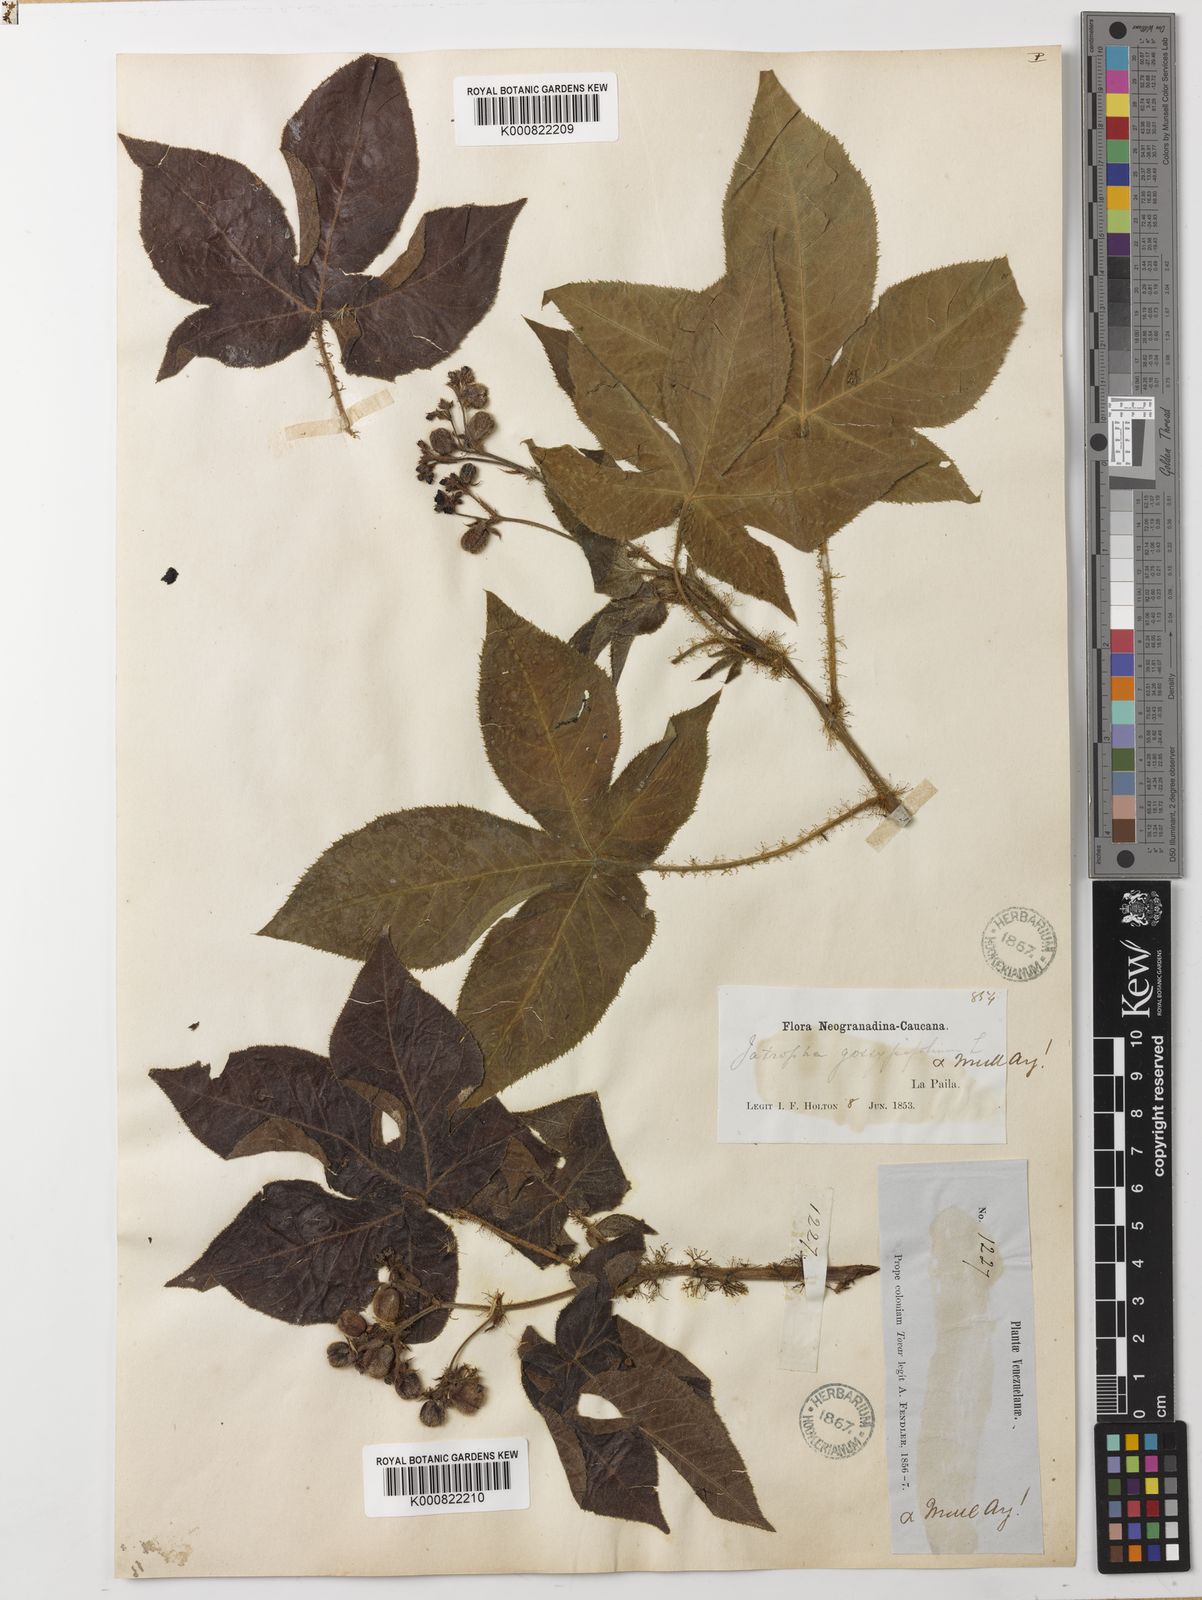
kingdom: Plantae
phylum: Tracheophyta
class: Magnoliopsida
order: Malpighiales
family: Euphorbiaceae
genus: Jatropha
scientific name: Jatropha gossypiifolia
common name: Bellyache bush
